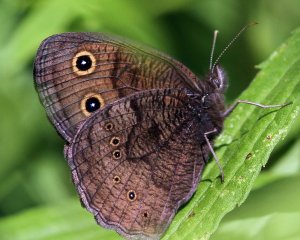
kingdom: Animalia
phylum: Arthropoda
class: Insecta
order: Lepidoptera
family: Nymphalidae
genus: Cercyonis
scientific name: Cercyonis pegala
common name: Common Wood-Nymph
